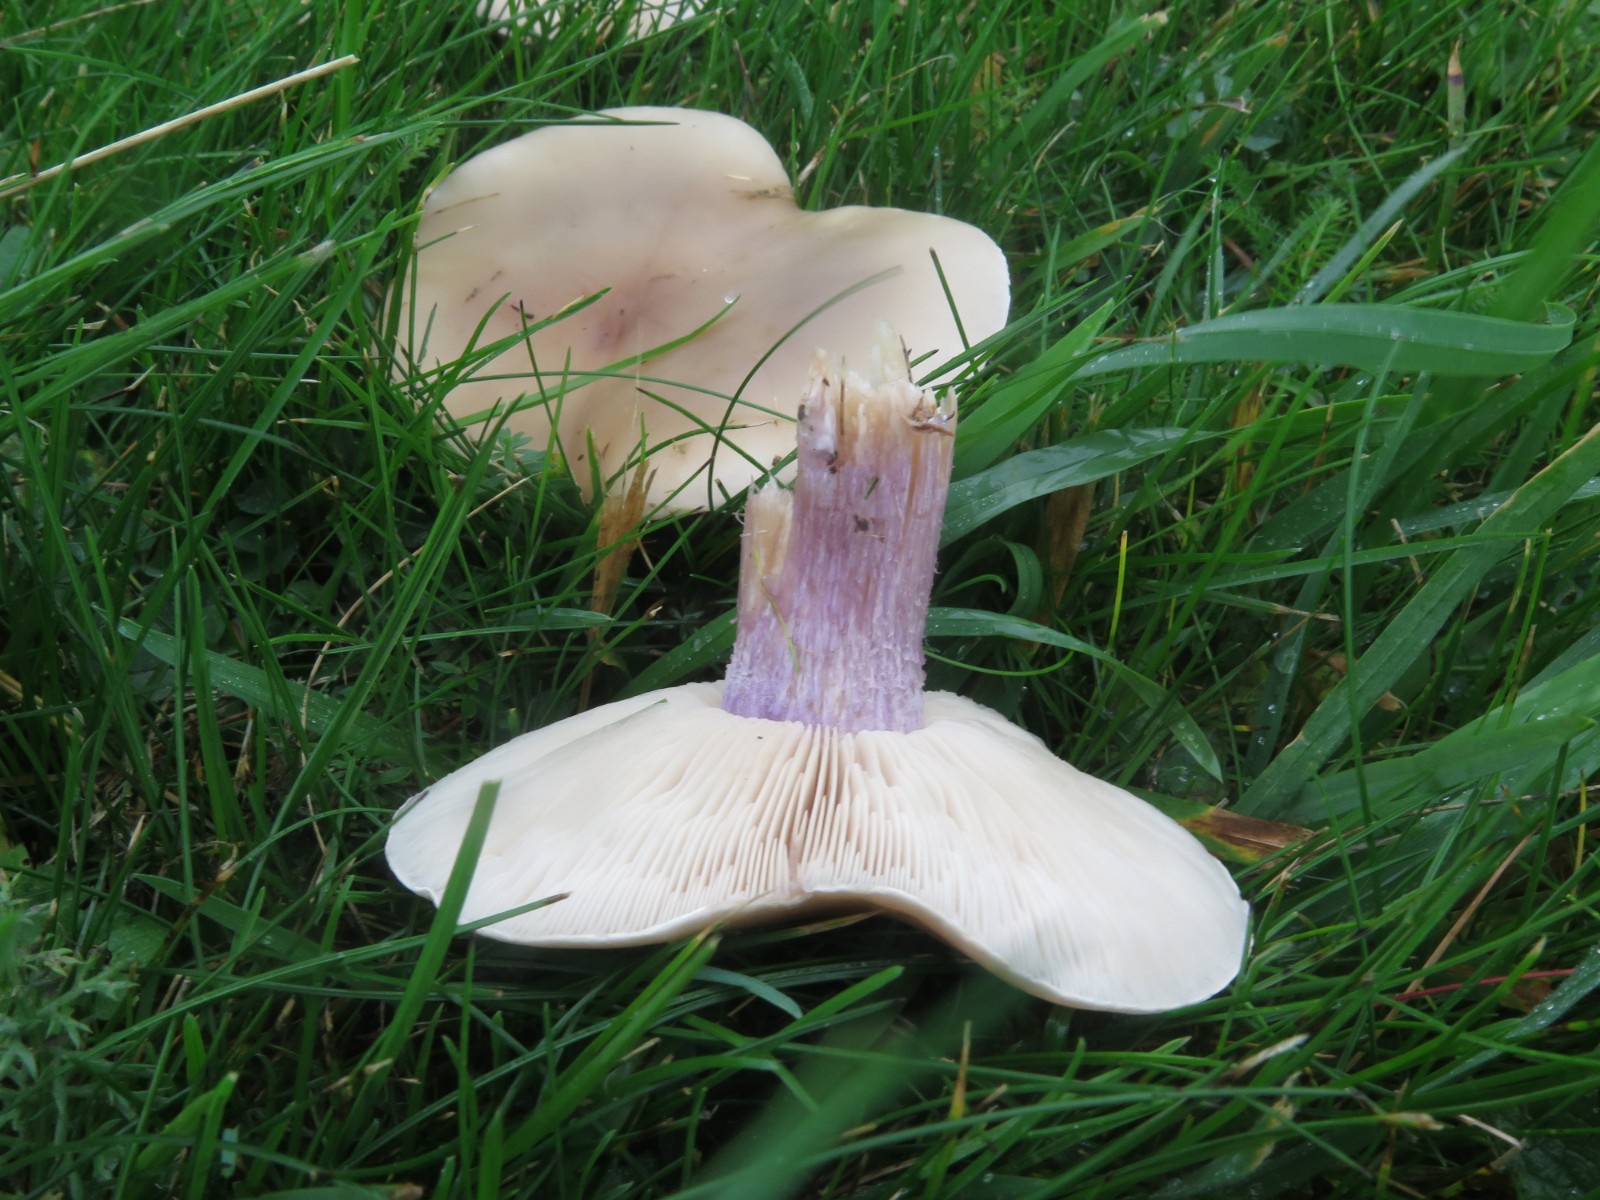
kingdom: Fungi
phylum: Basidiomycota
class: Agaricomycetes
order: Agaricales
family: Tricholomataceae
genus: Lepista
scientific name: Lepista personata
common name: bleg hekseringshat
